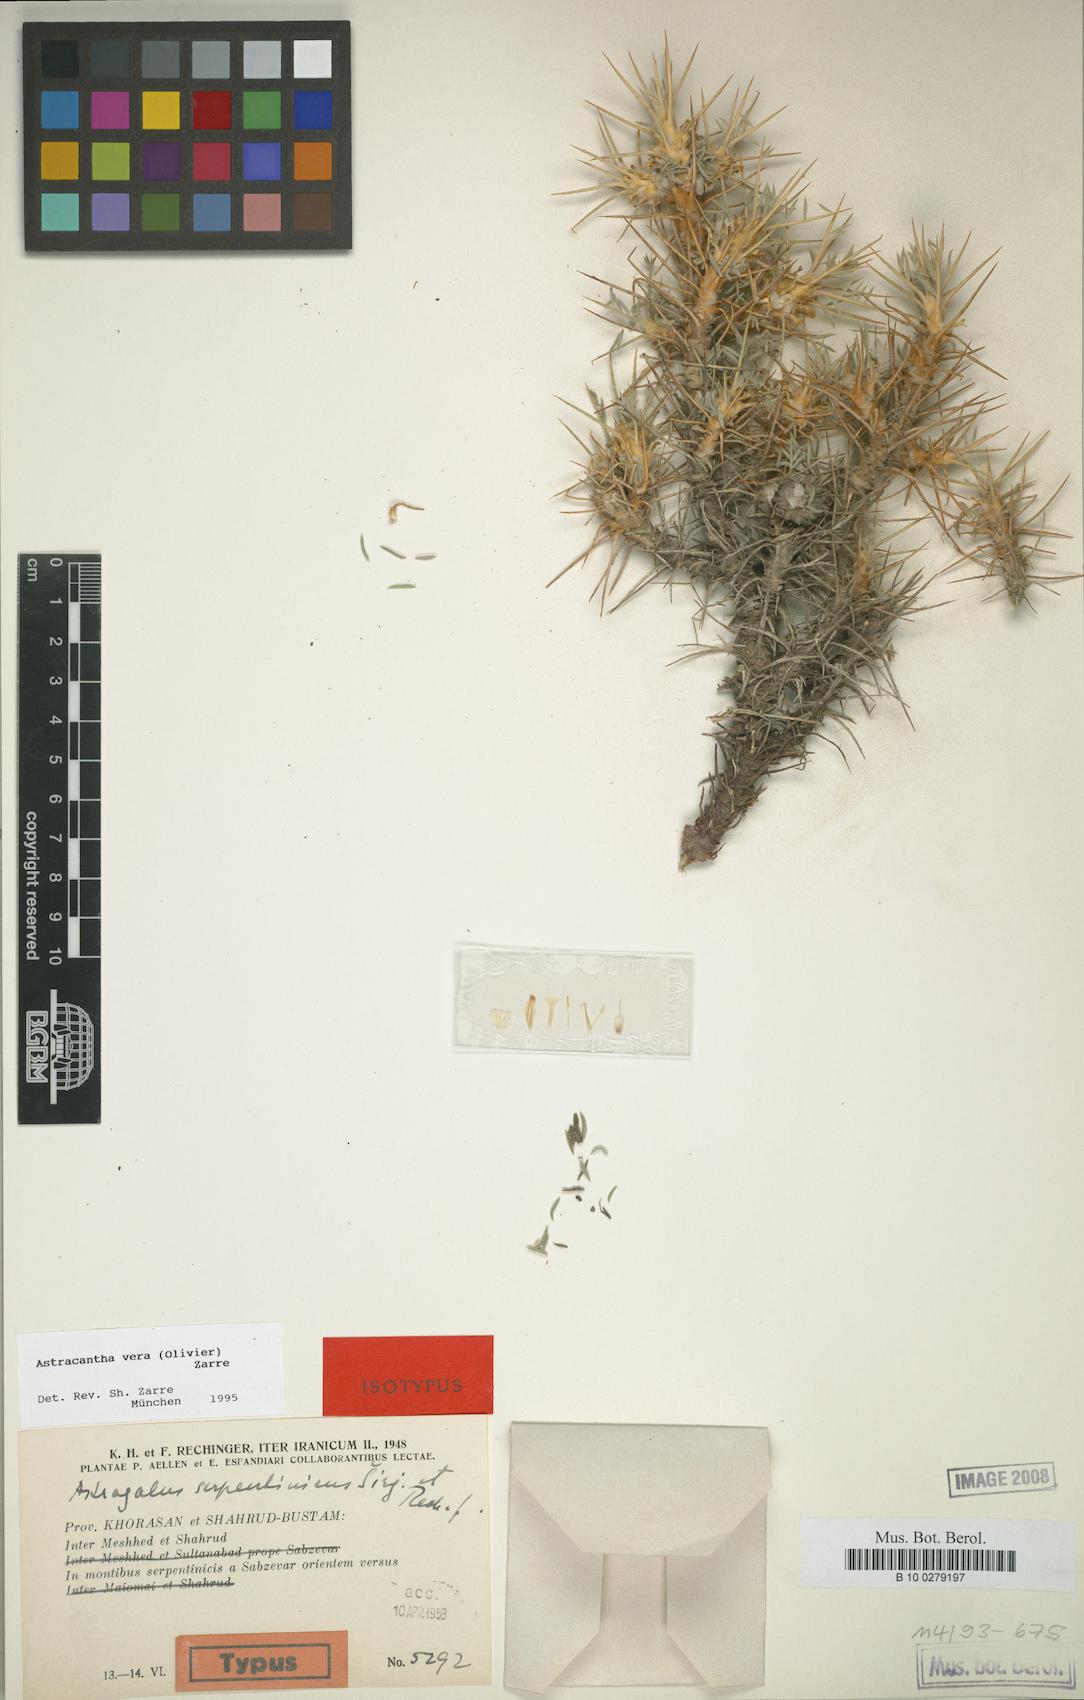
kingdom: Chromista
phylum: Cercozoa
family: Astracanthidae
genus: Astracantha
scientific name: Astracantha
